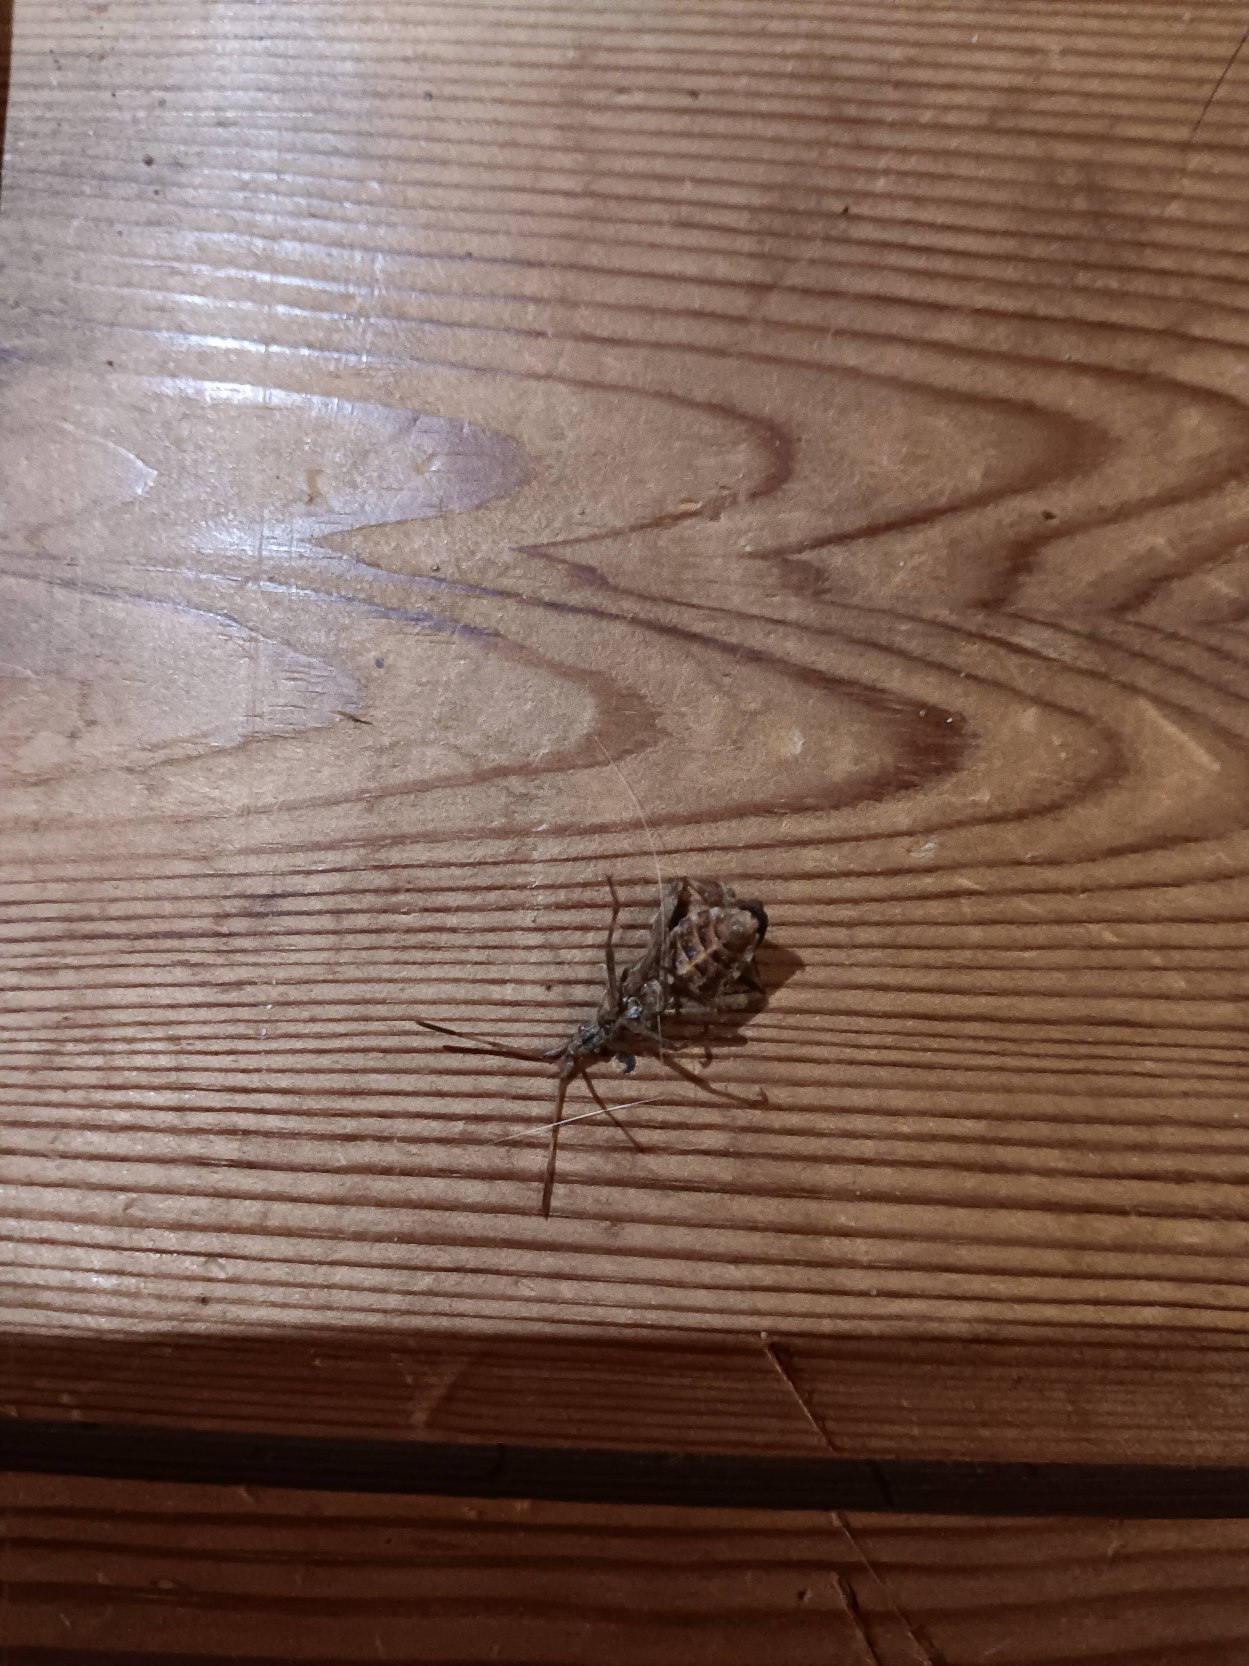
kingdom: Animalia
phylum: Arthropoda
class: Insecta
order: Hemiptera
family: Coreidae
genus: Leptoglossus
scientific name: Leptoglossus occidentalis
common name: Amerikansk fyrretæge
